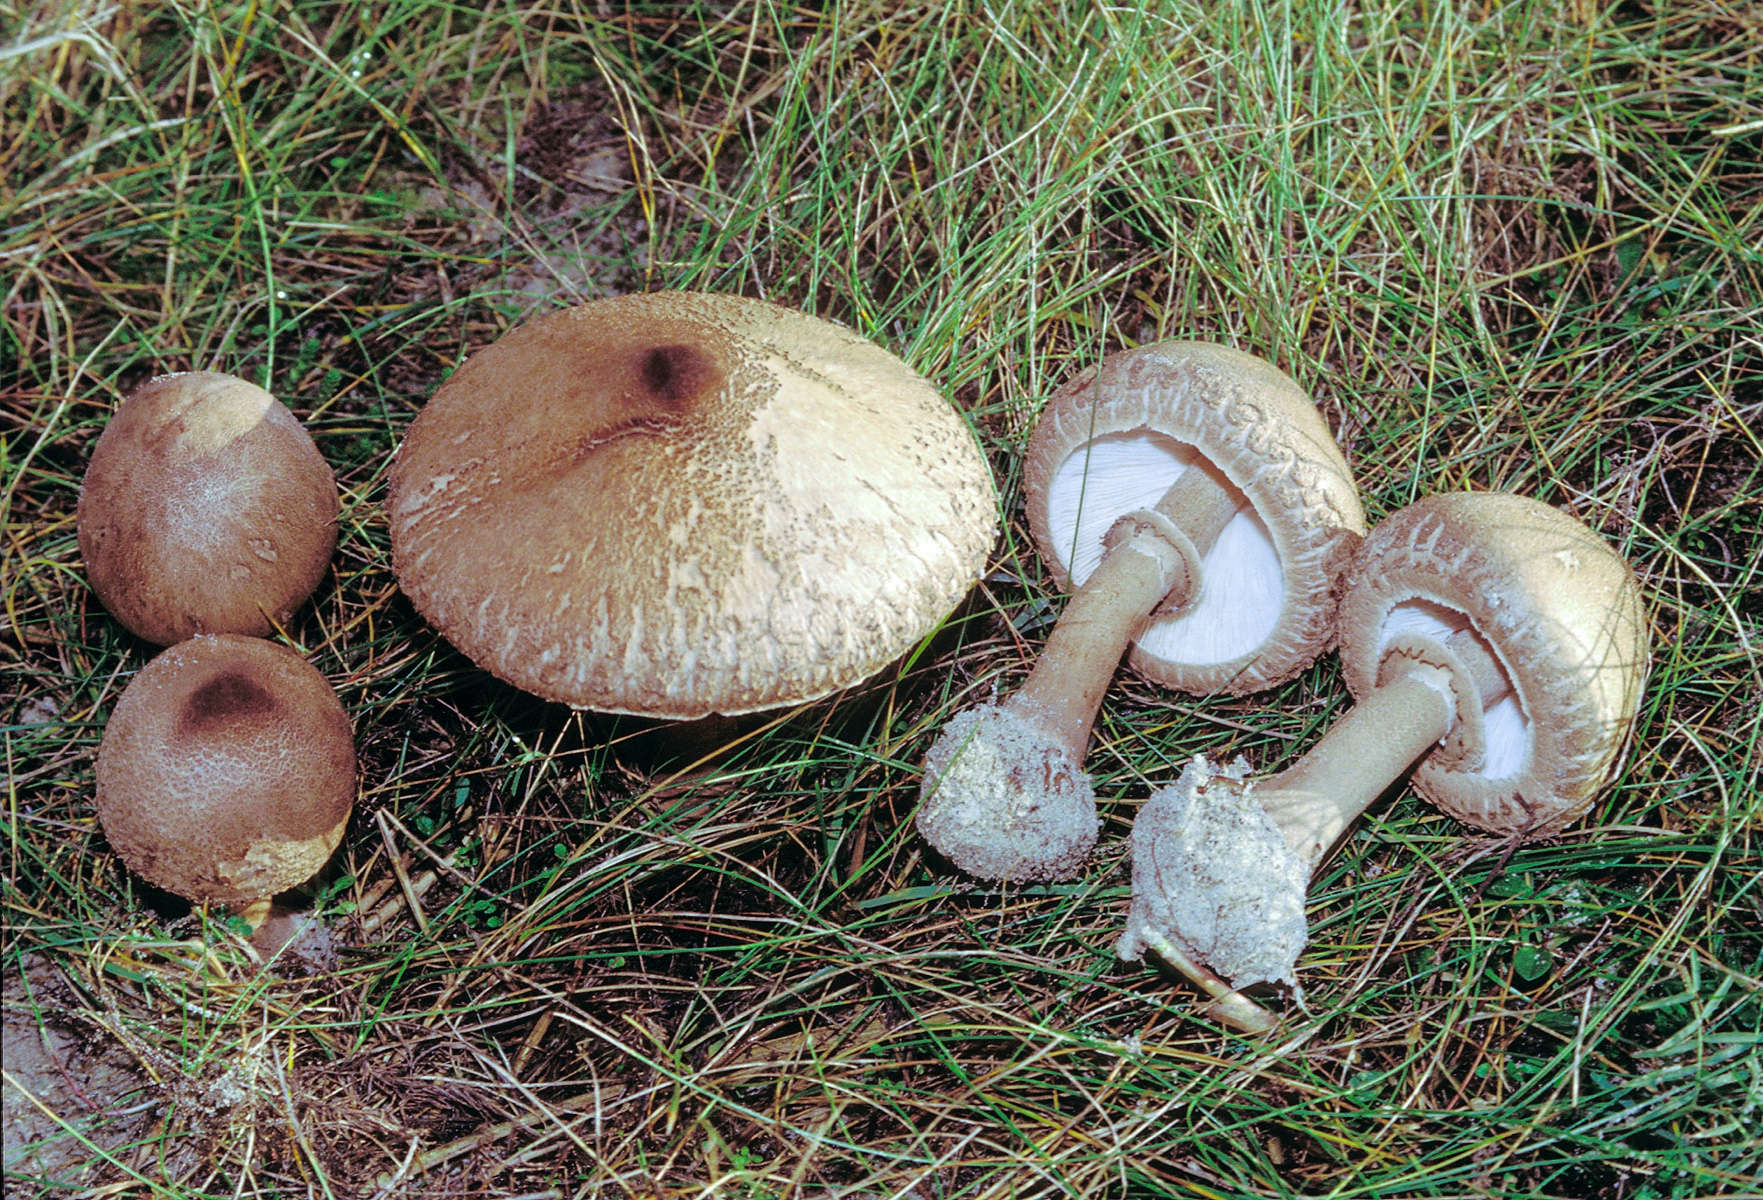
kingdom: Fungi
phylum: Basidiomycota
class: Agaricomycetes
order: Agaricales
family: Agaricaceae
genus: Lepiota
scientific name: Lepiota fuligineosquarrosa
